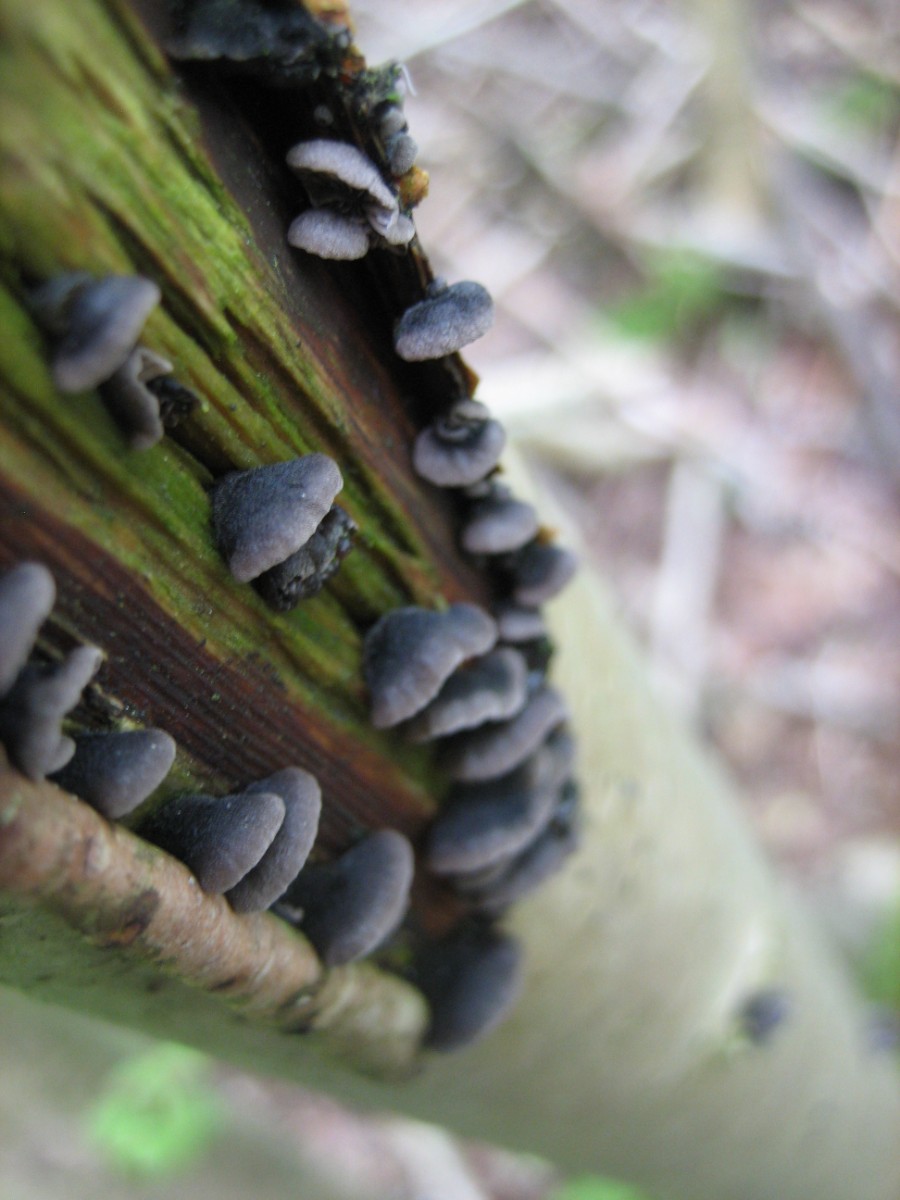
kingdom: Fungi
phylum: Basidiomycota
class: Agaricomycetes
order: Agaricales
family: Pleurotaceae
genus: Resupinatus
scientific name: Resupinatus trichotis
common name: mørkfiltet barkhat
